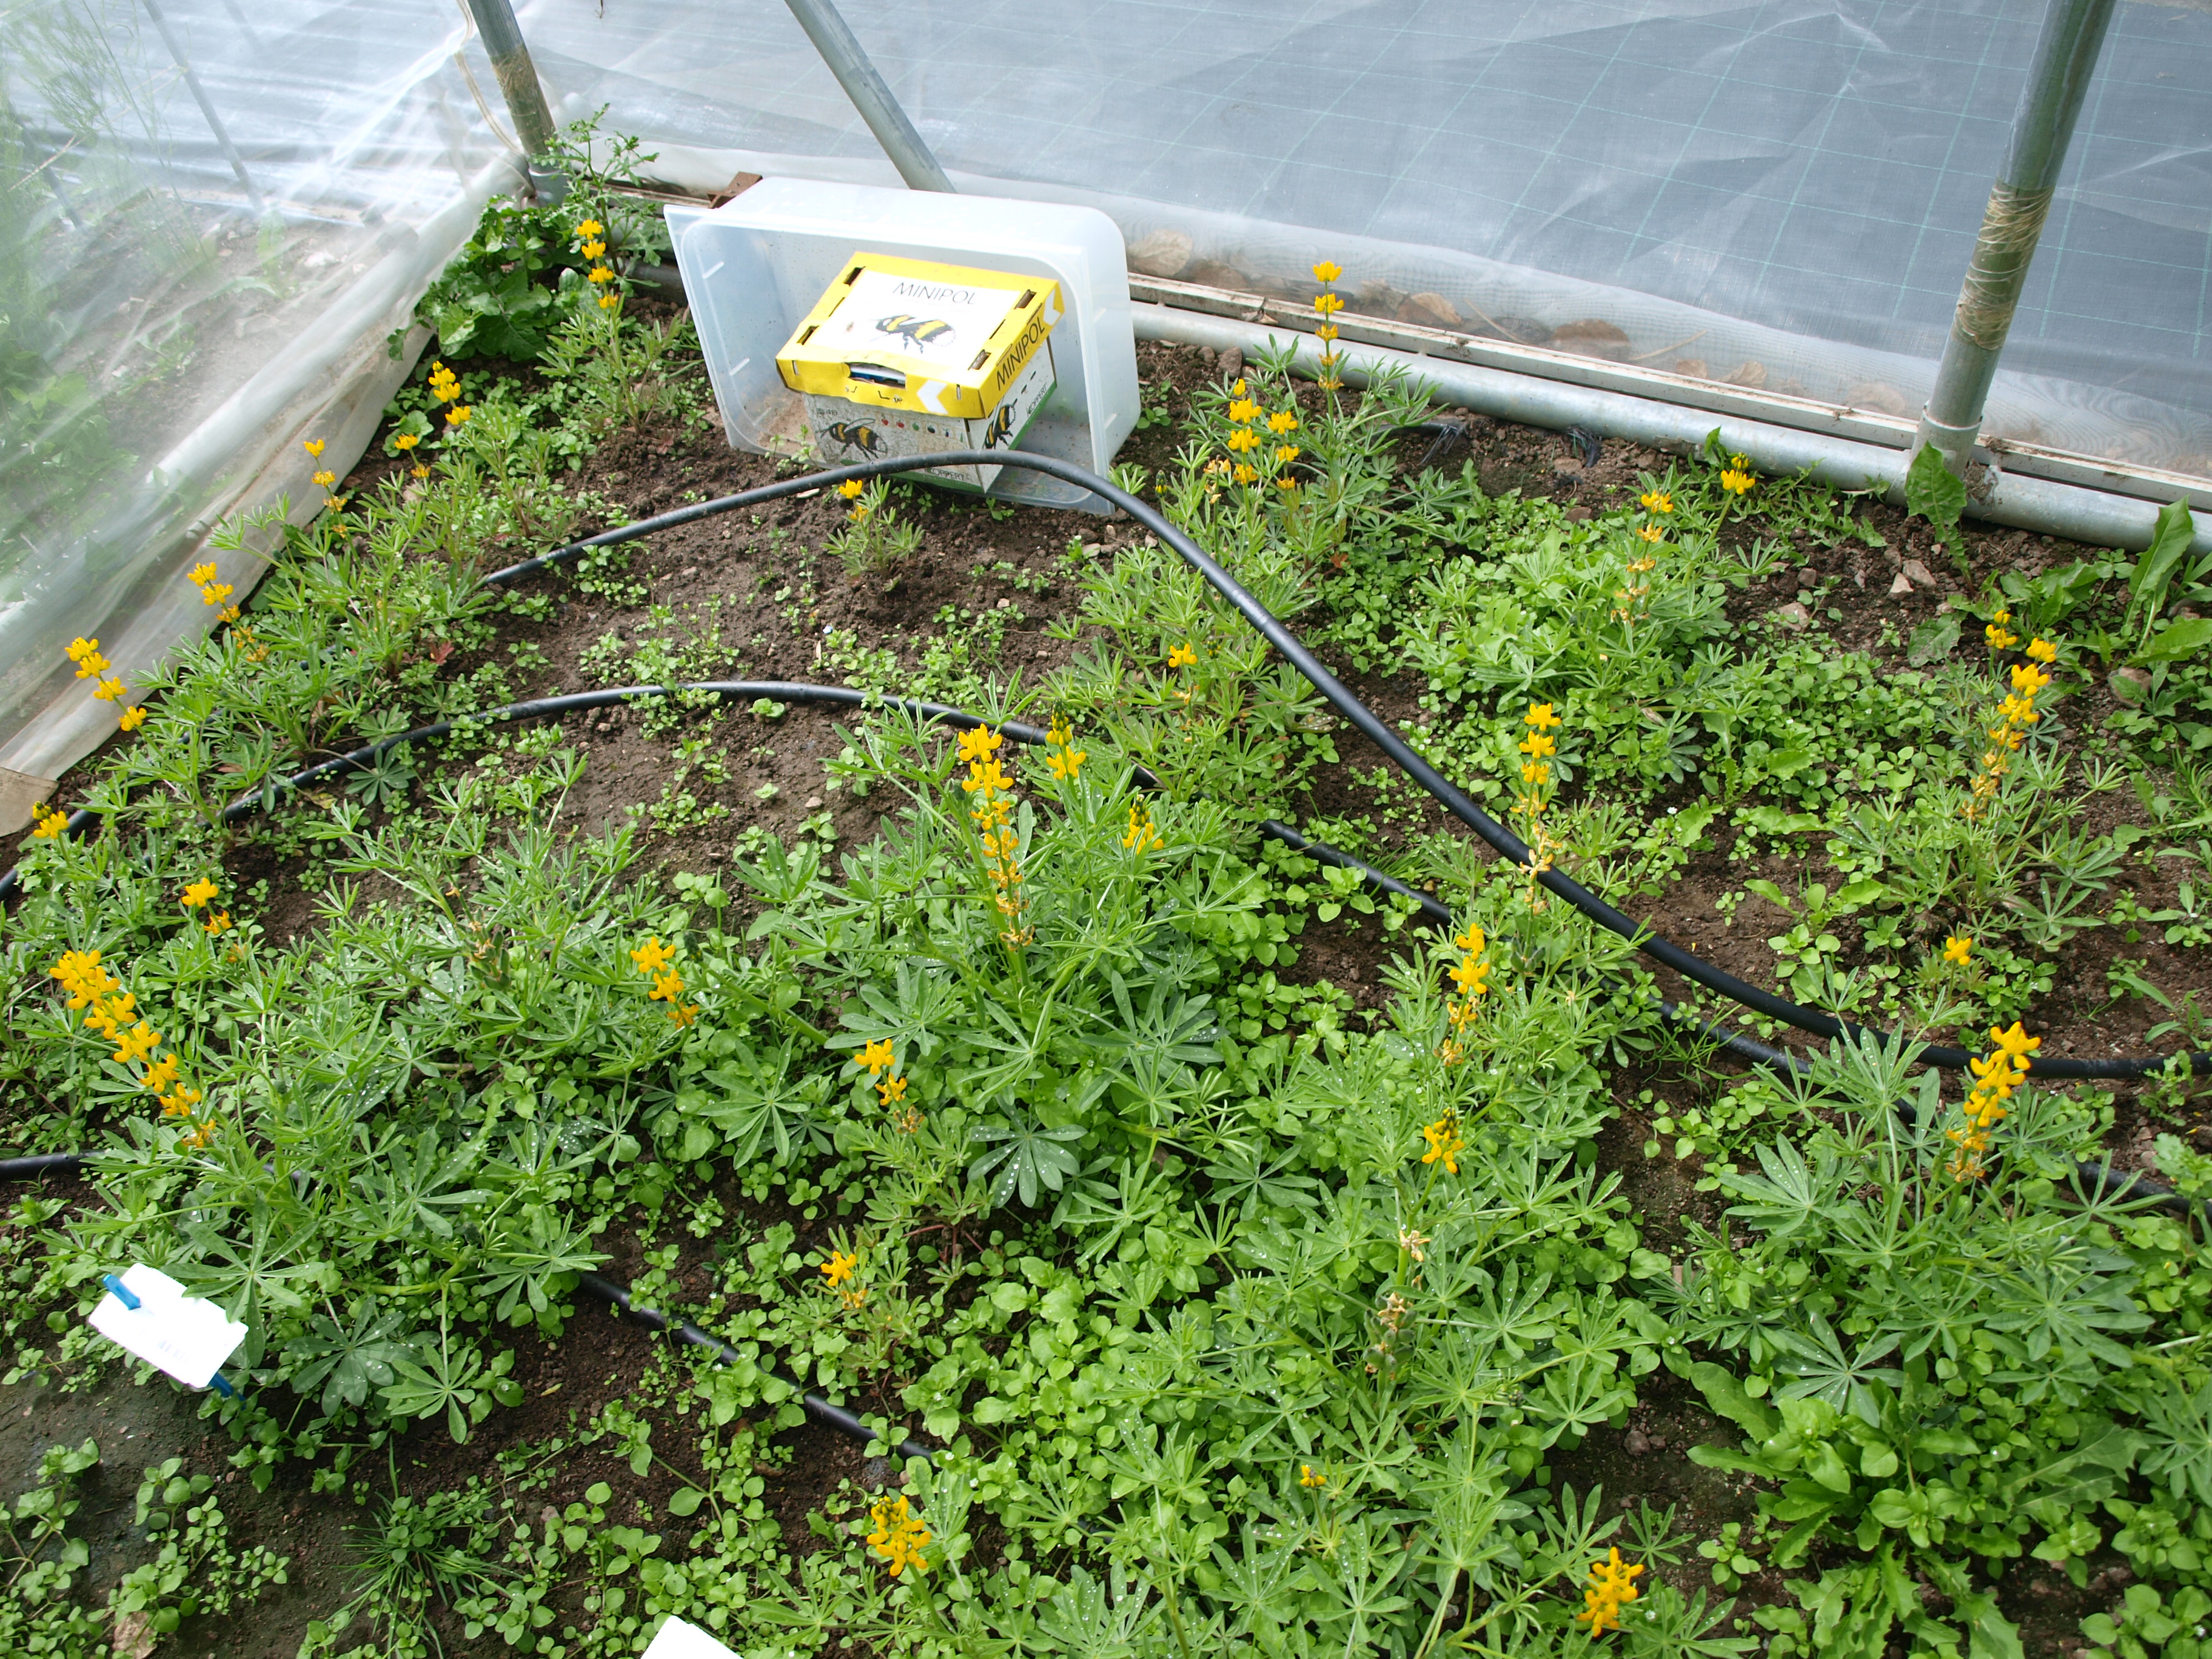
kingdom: Plantae
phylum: Tracheophyta
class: Magnoliopsida
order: Fabales
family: Fabaceae
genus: Lupinus
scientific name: Lupinus luteus
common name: European yellow lupine
